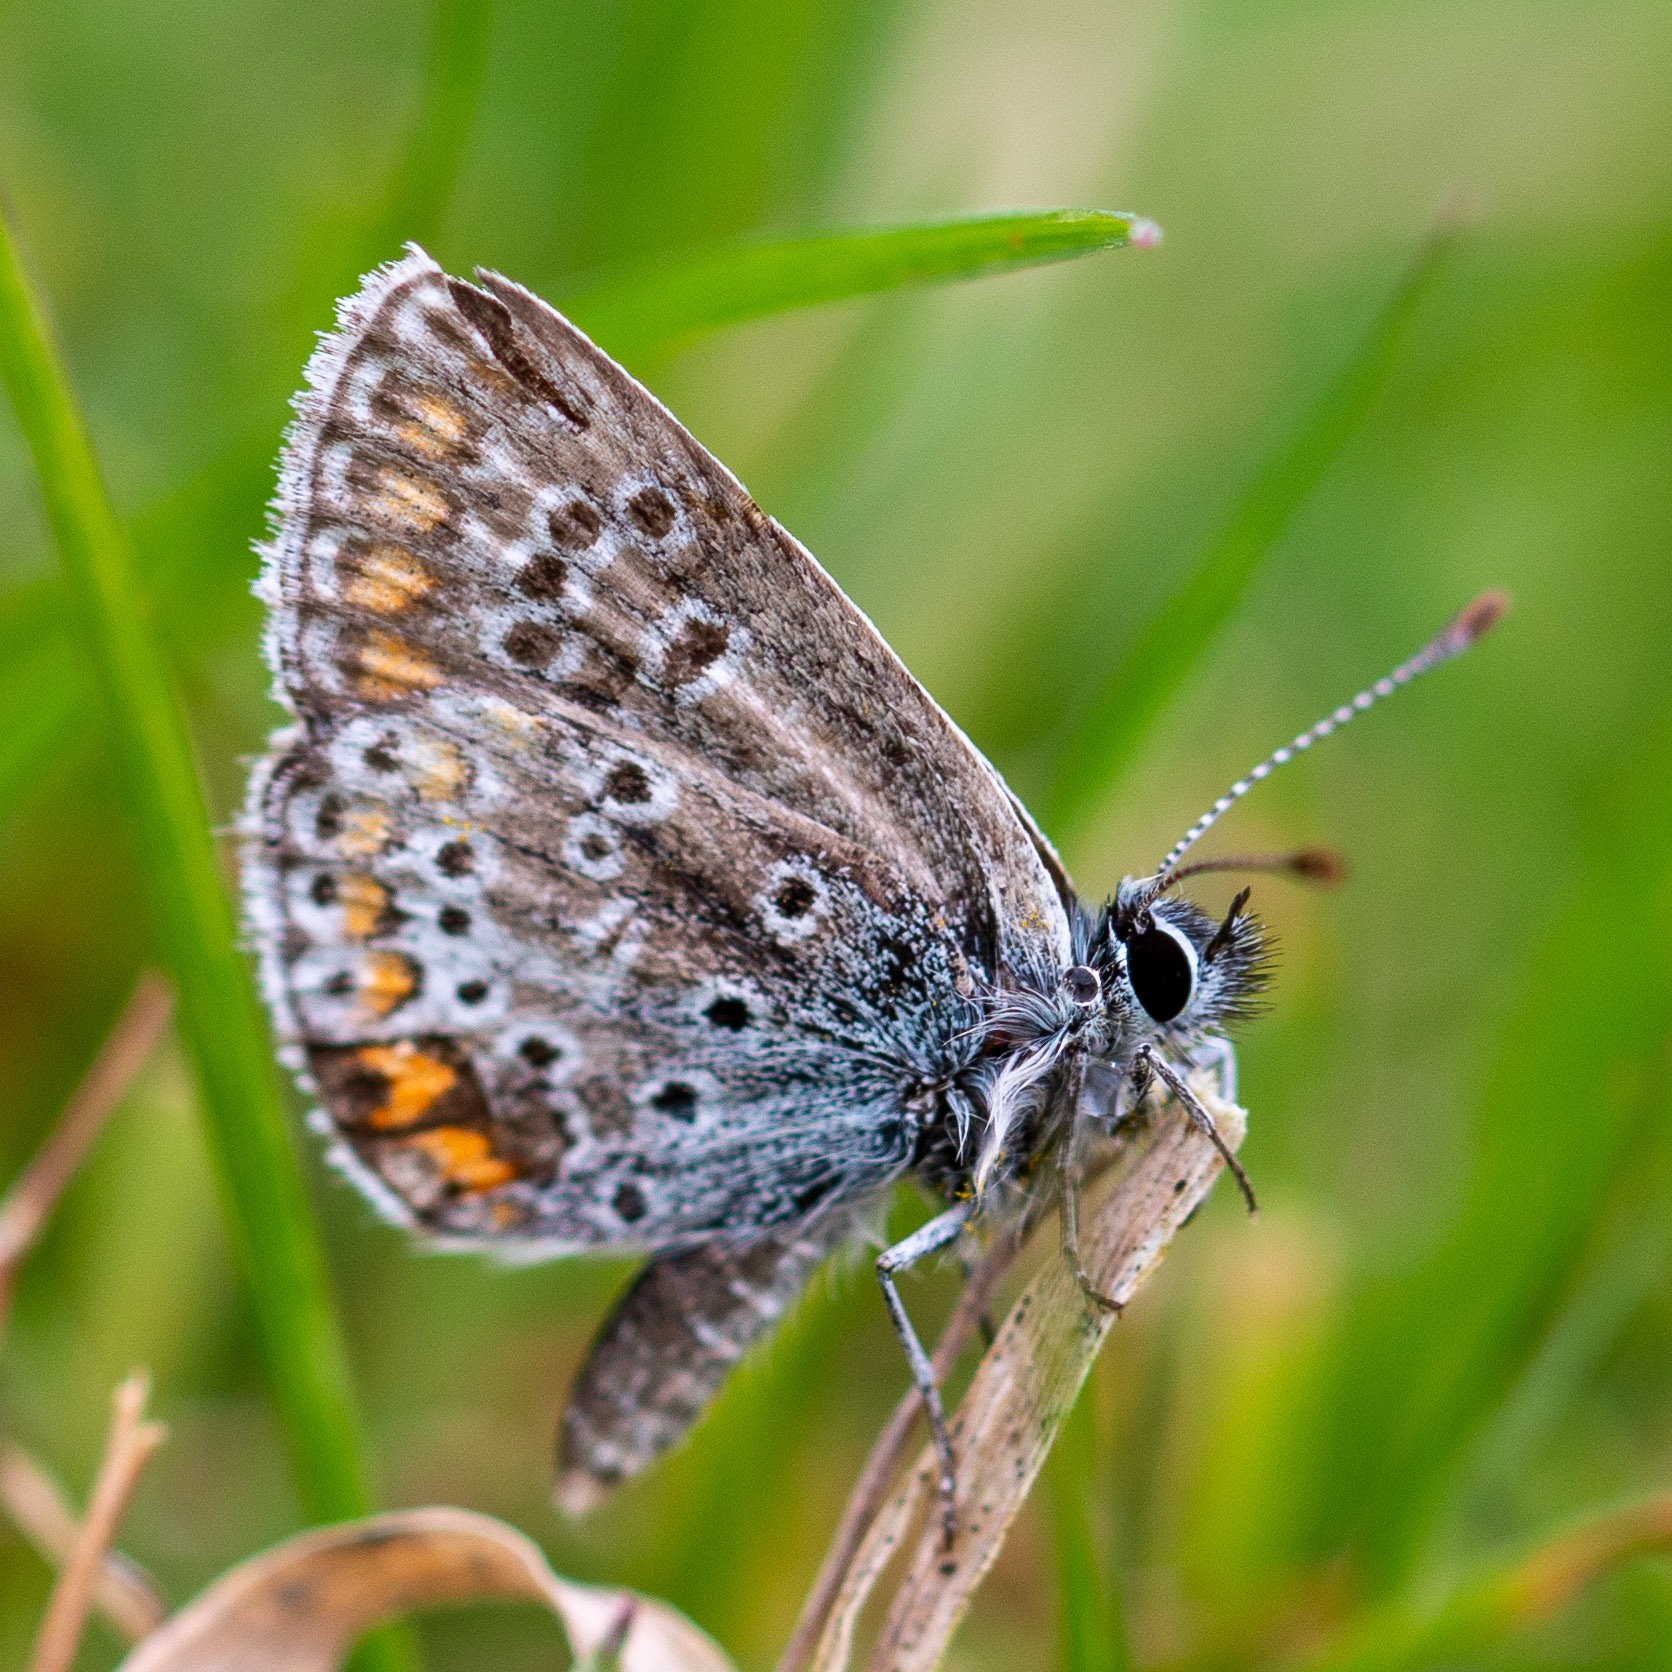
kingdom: Animalia
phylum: Arthropoda
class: Insecta
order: Lepidoptera
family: Lycaenidae
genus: Aricia
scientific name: Aricia agestis
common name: Rødplettet blåfugl
